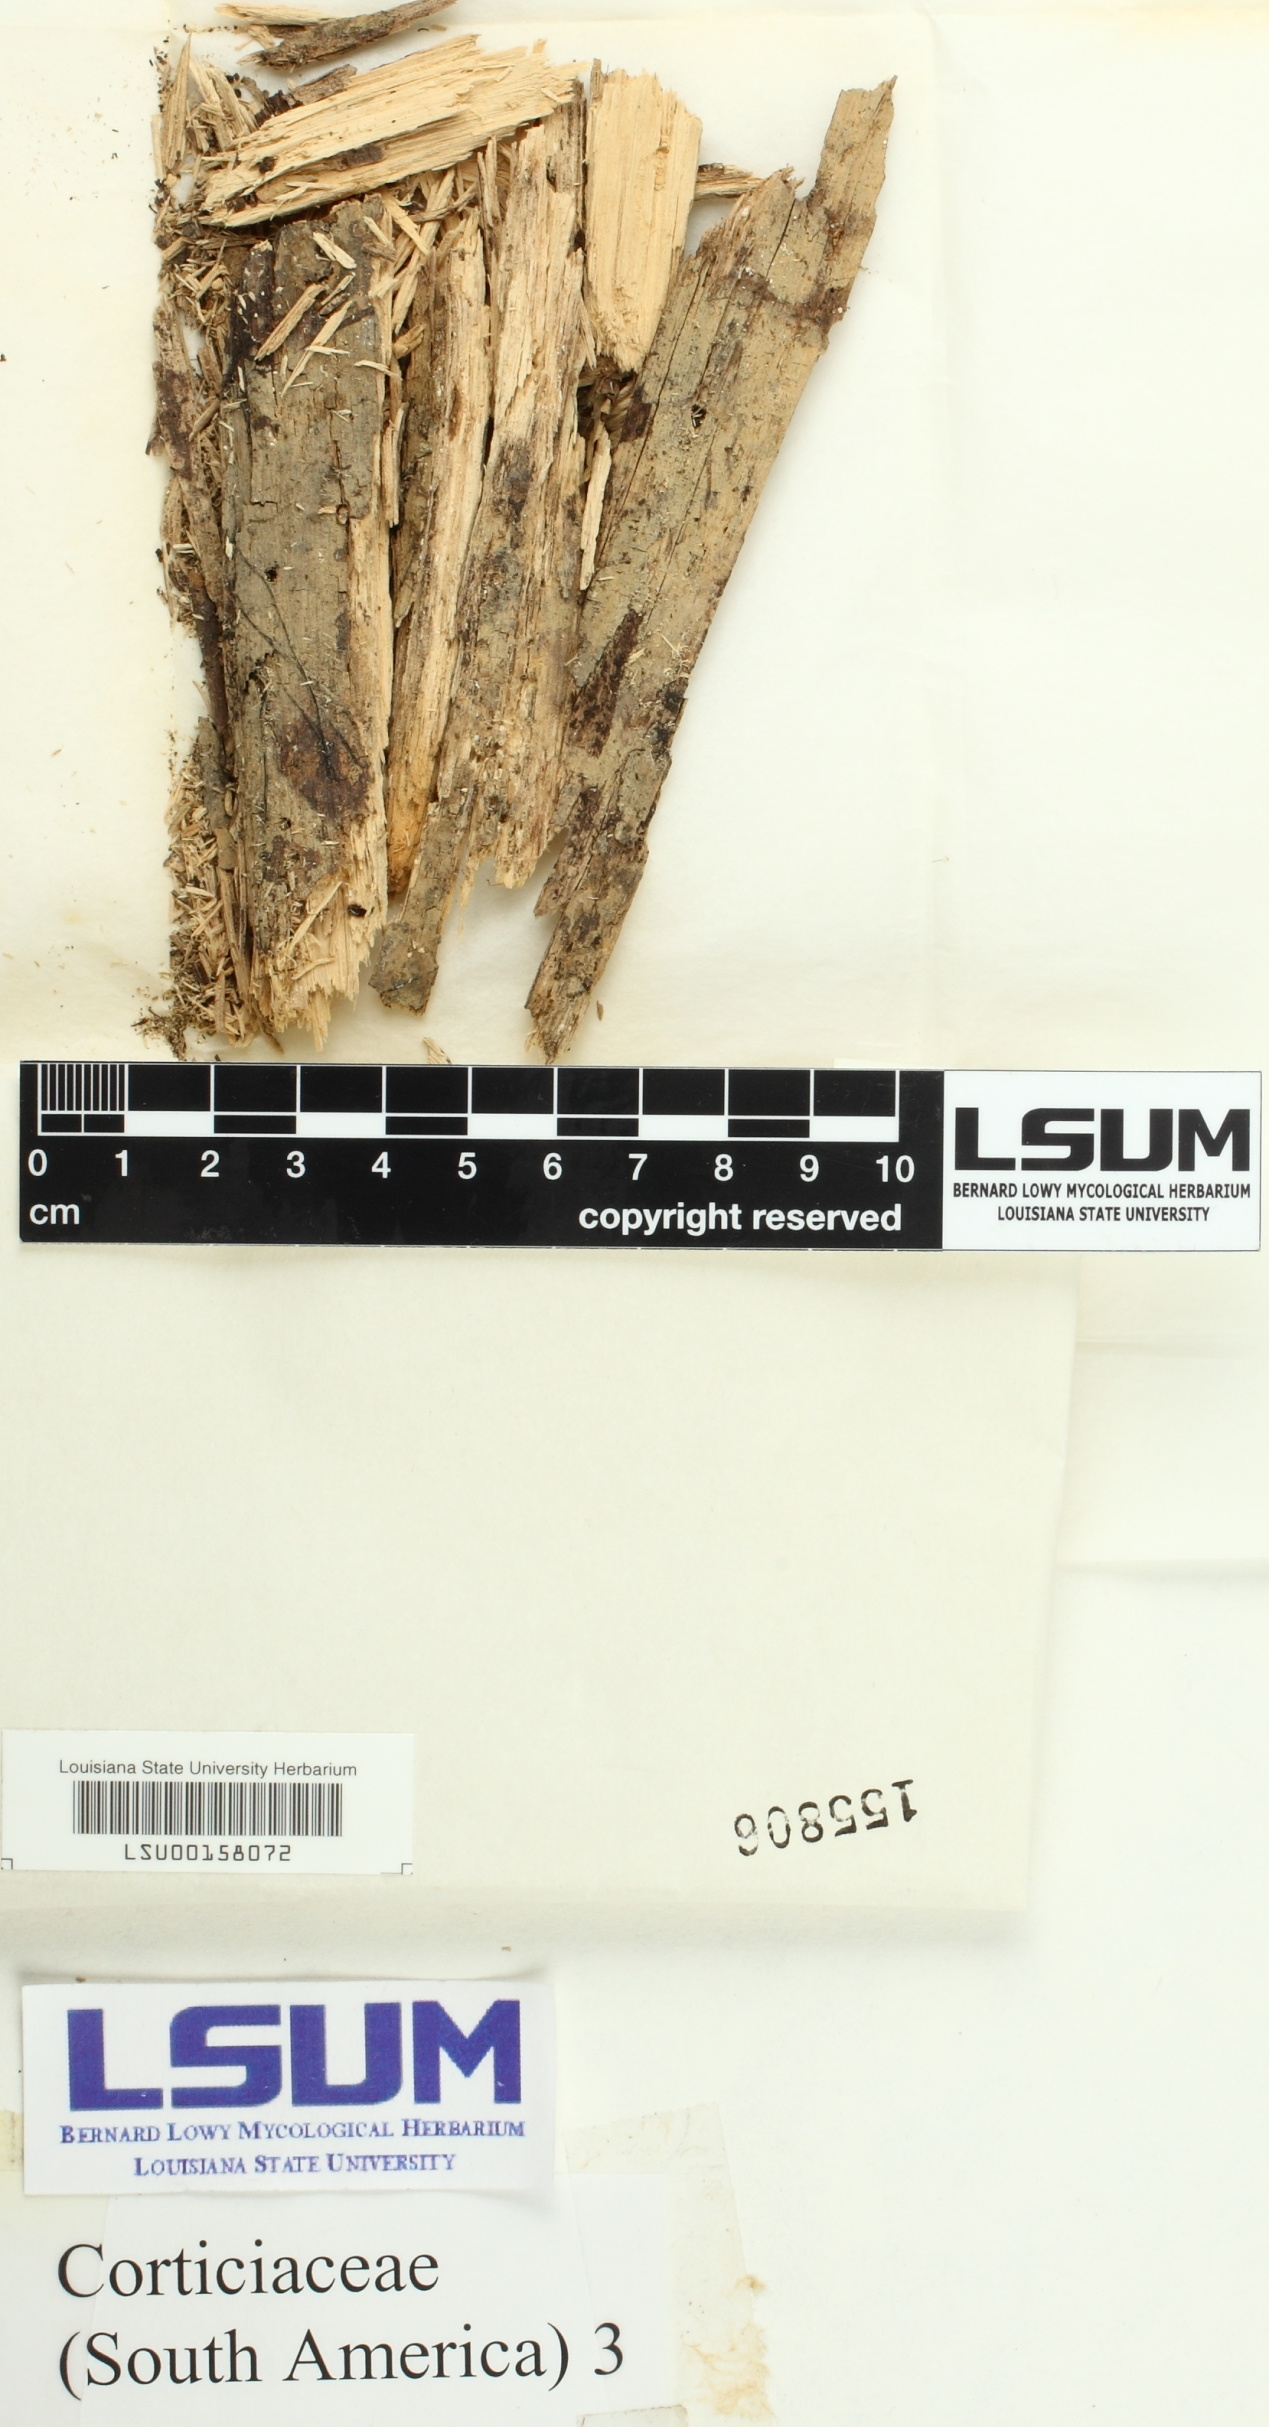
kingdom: Fungi
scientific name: Fungi
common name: Fungi
